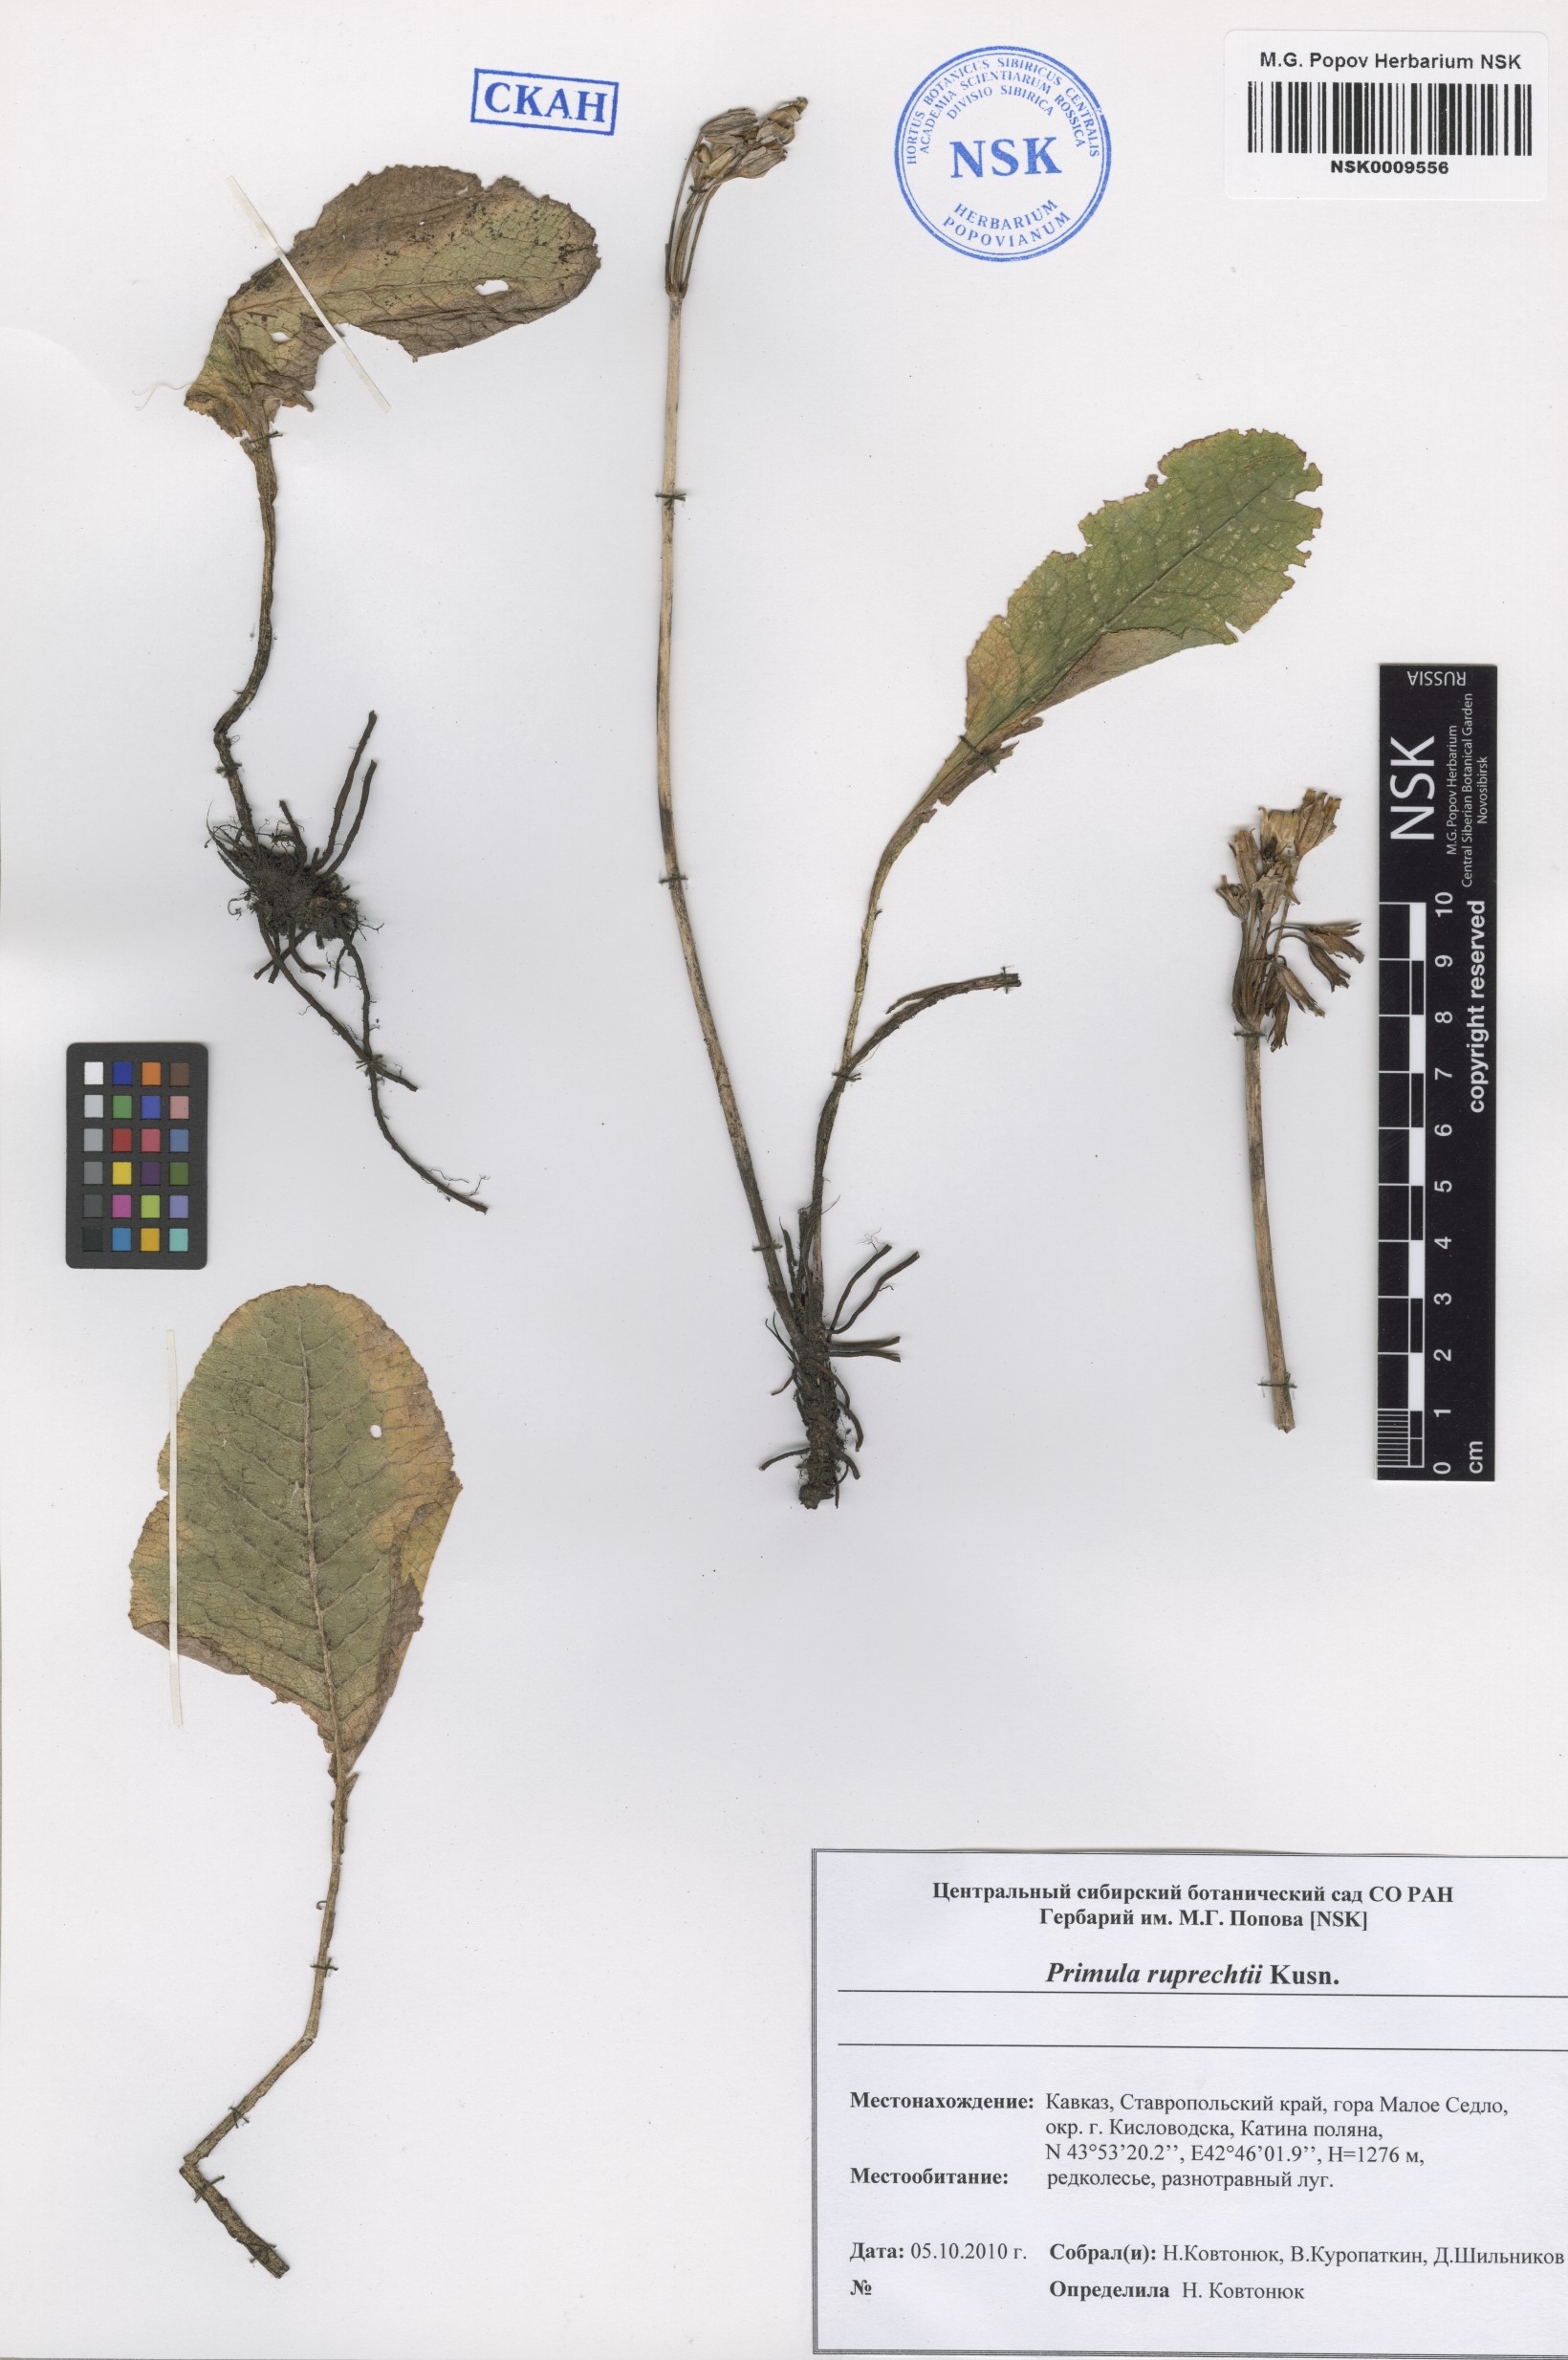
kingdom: Plantae
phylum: Tracheophyta
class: Magnoliopsida
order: Ericales
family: Primulaceae
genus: Primula
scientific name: Primula ruprechtii
